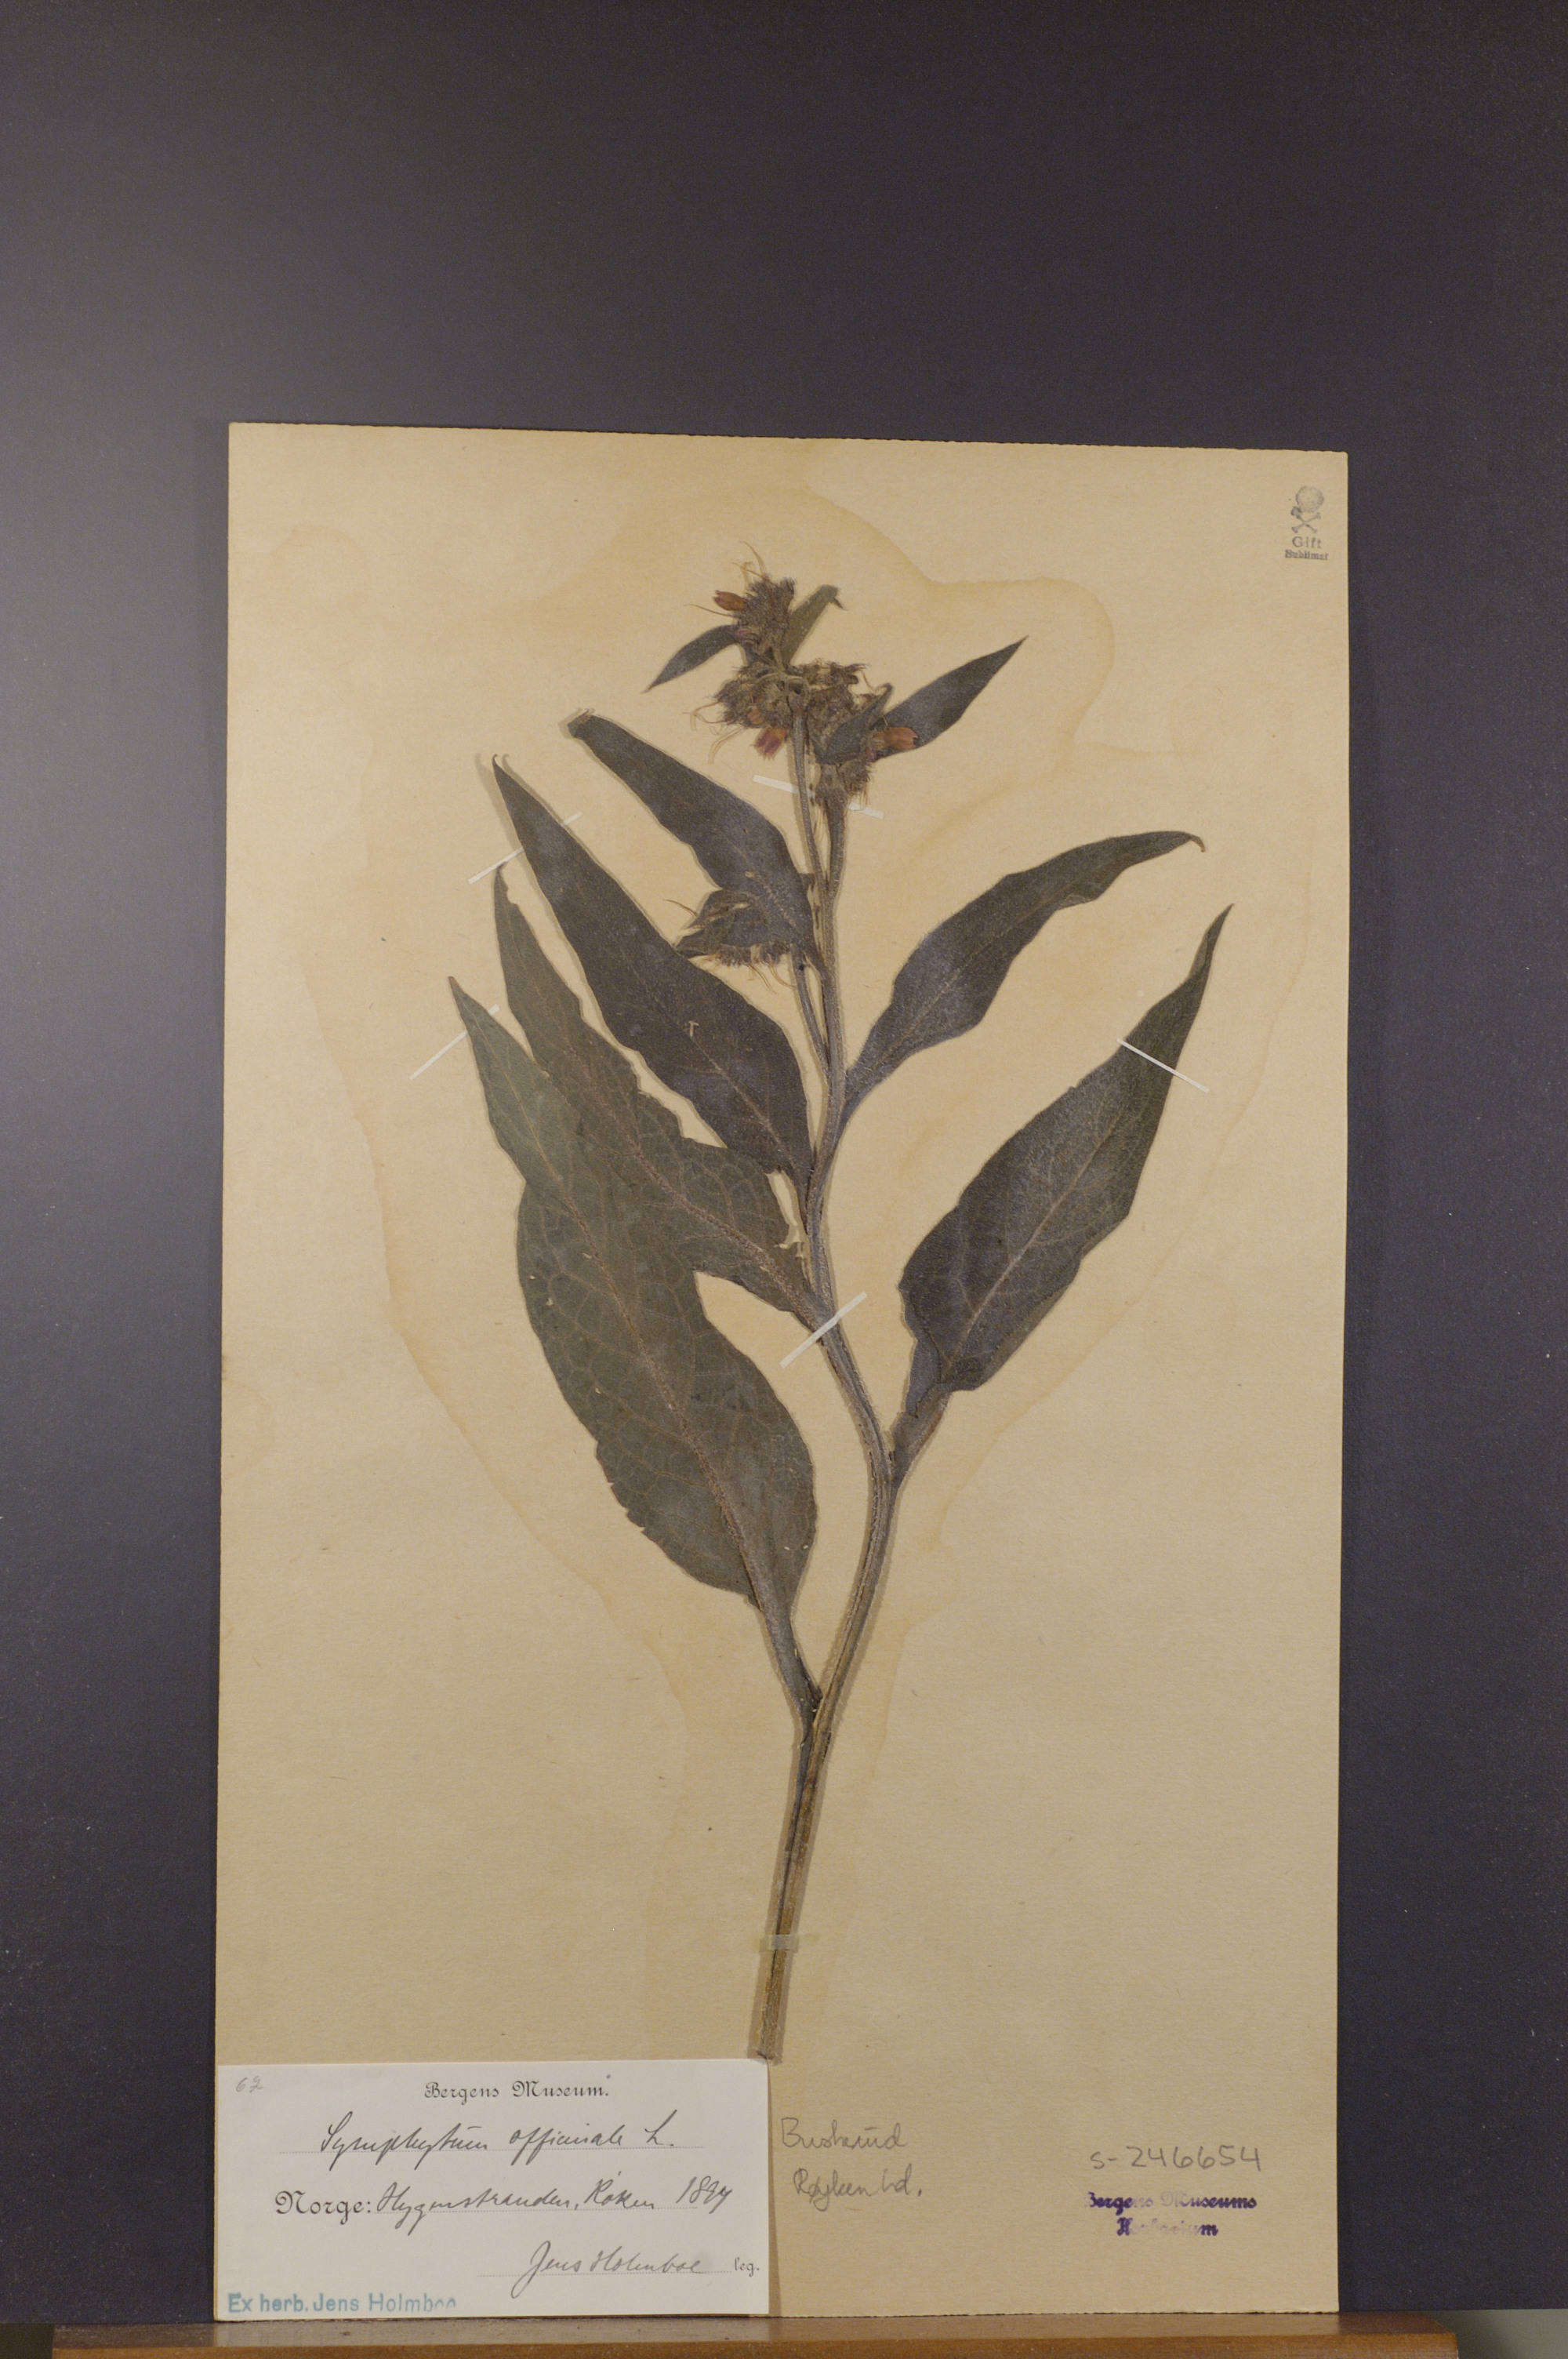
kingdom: Plantae
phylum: Tracheophyta
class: Magnoliopsida
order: Boraginales
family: Boraginaceae
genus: Symphytum
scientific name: Symphytum officinale
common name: Common comfrey
